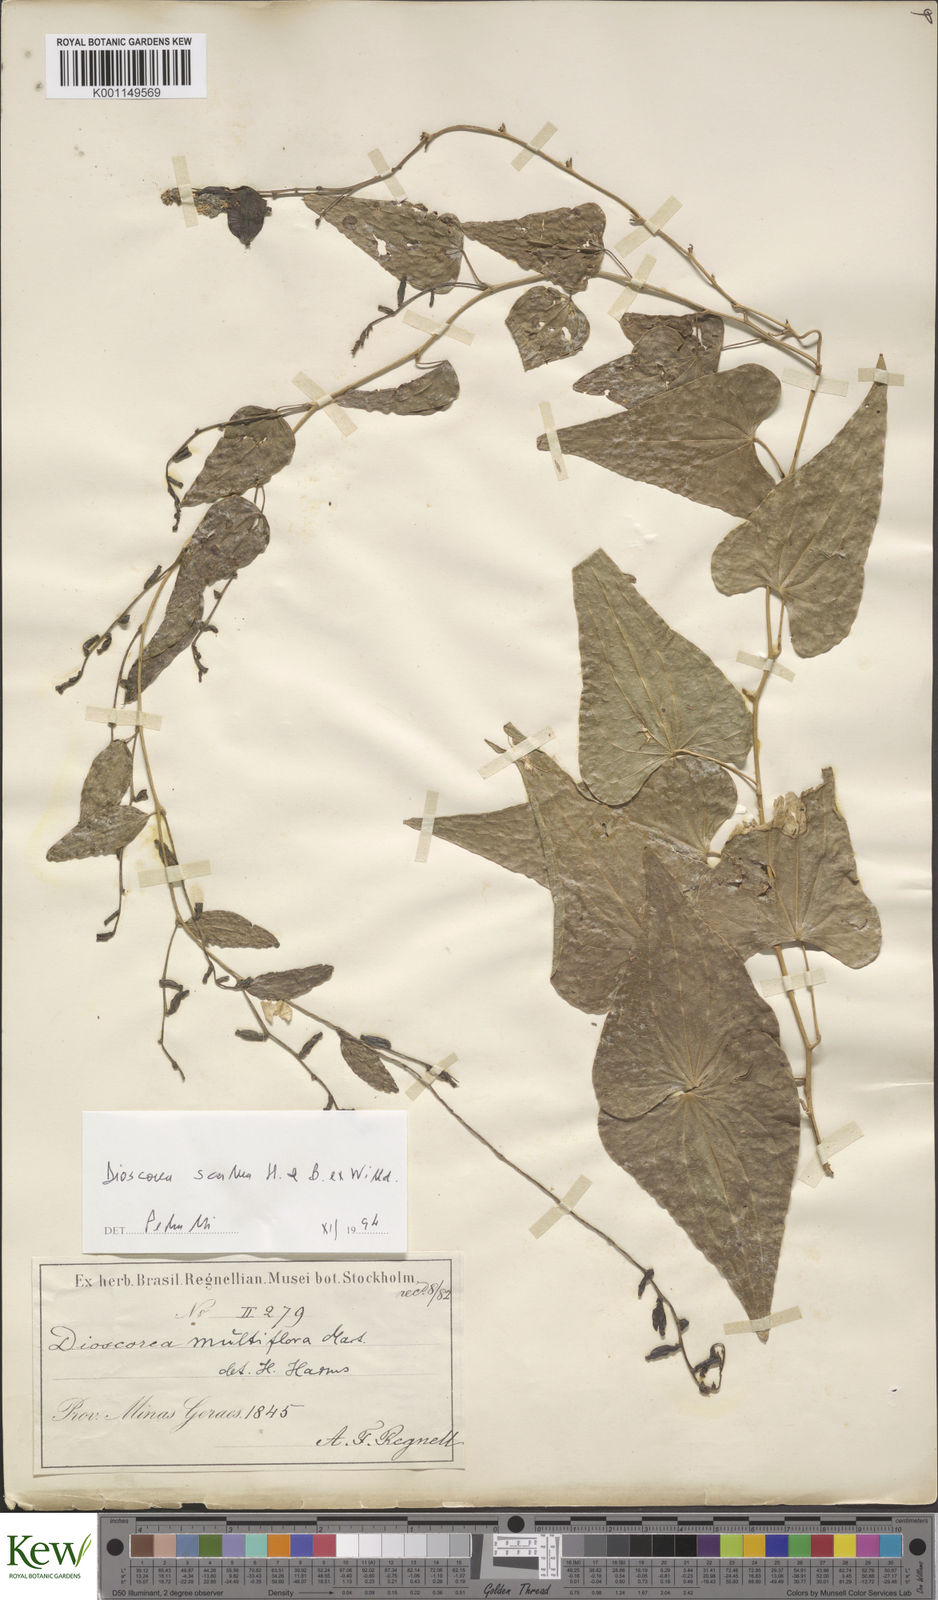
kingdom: Plantae
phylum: Tracheophyta
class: Liliopsida
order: Dioscoreales
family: Dioscoreaceae
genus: Dioscorea
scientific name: Dioscorea multiflora
